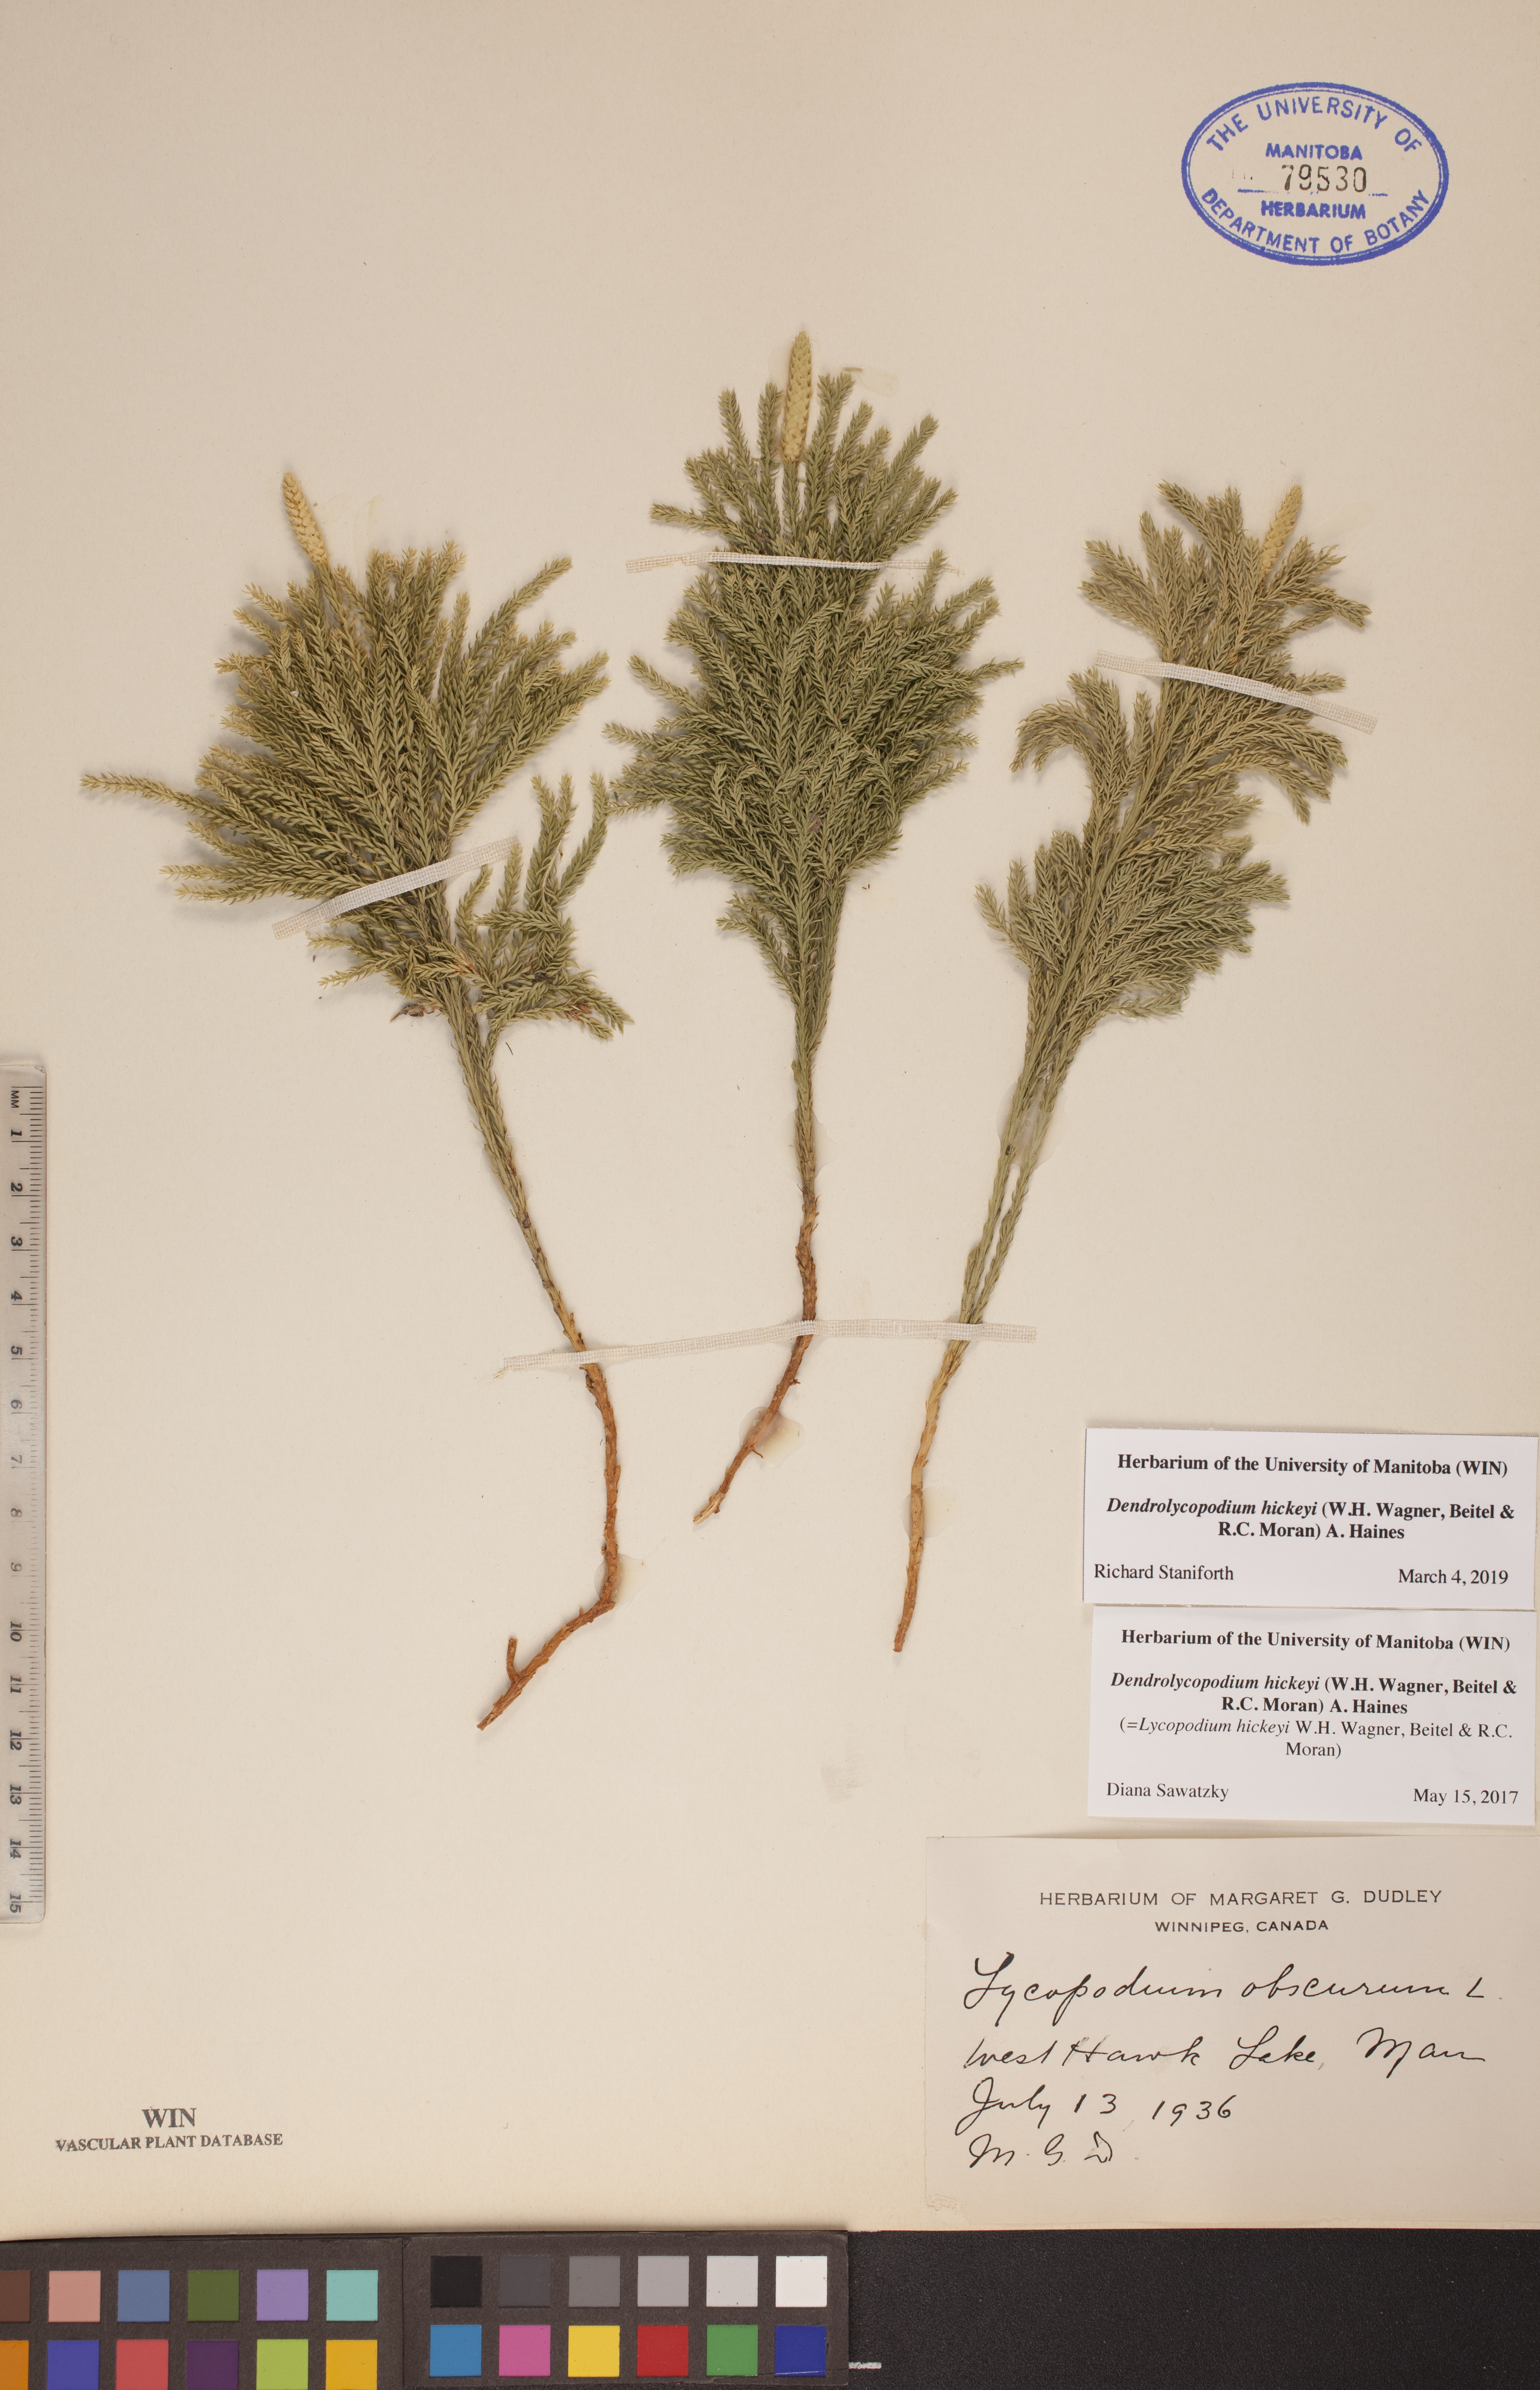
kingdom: Plantae
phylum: Tracheophyta
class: Lycopodiopsida
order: Lycopodiales
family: Lycopodiaceae
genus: Dendrolycopodium
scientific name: Dendrolycopodium hickeyi
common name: Hickey's clubmoss
